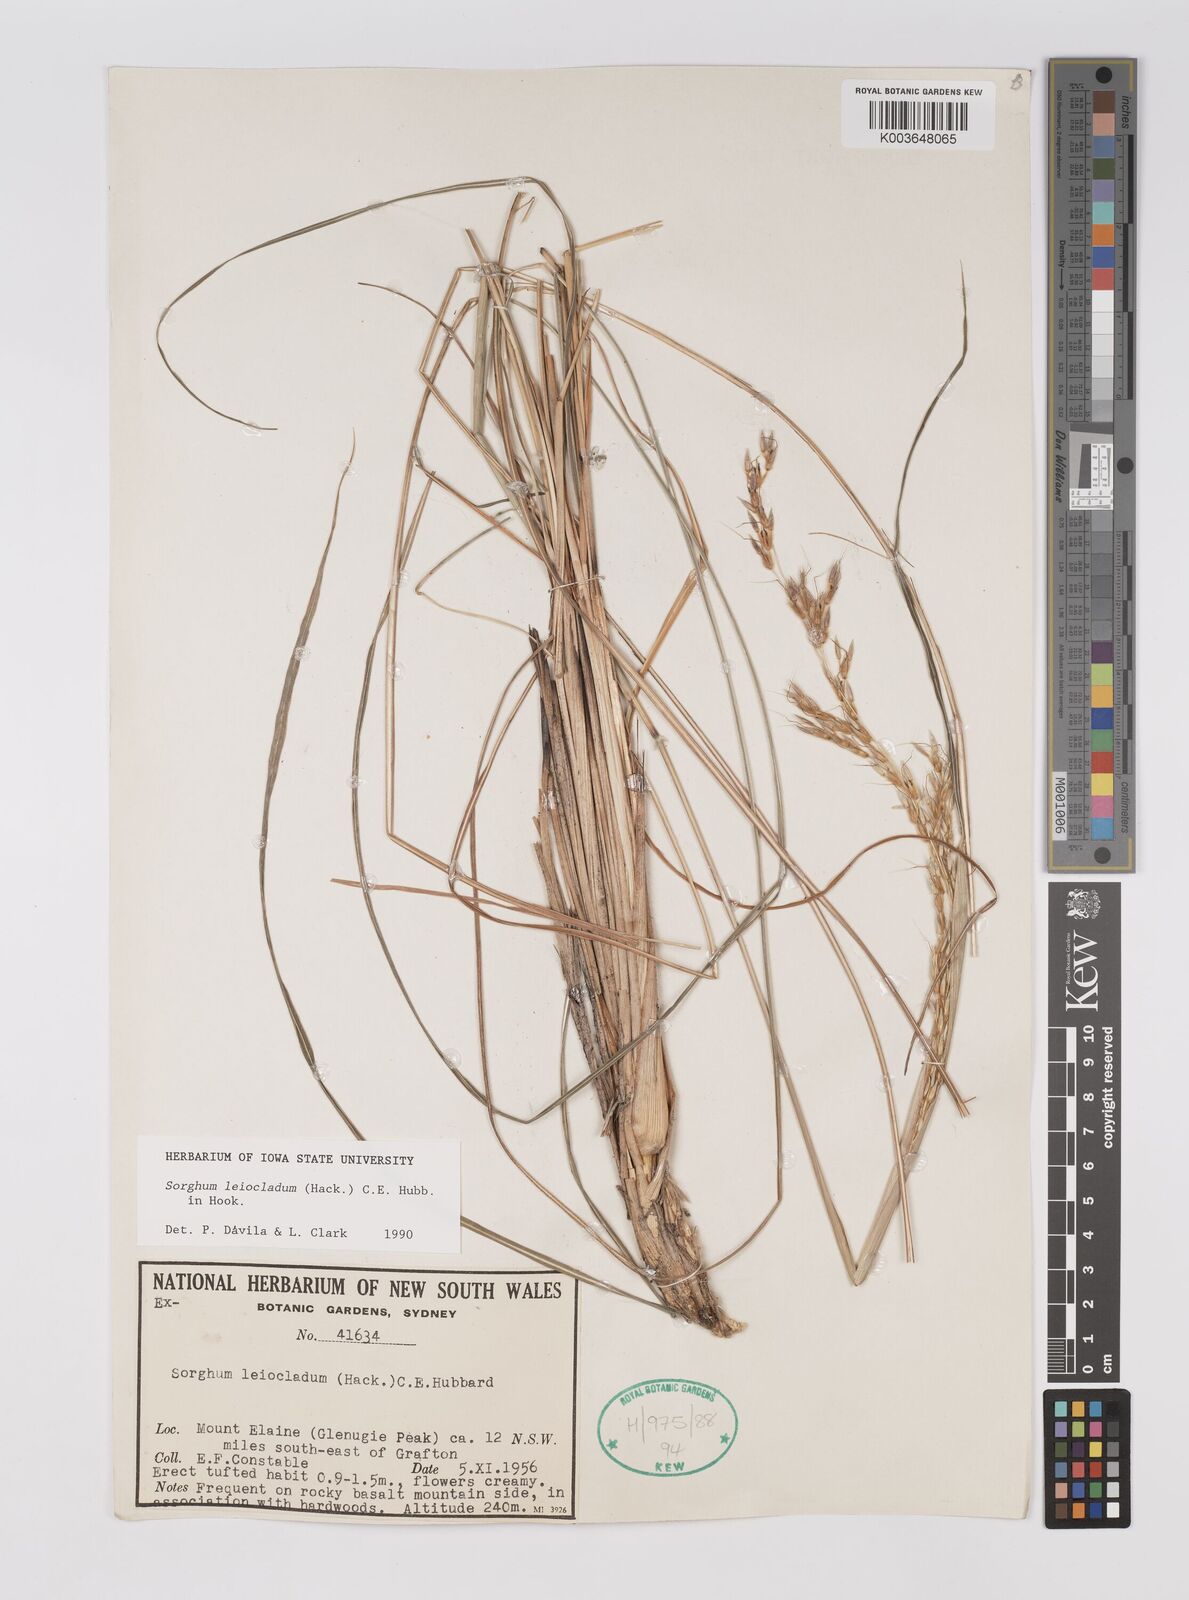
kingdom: Plantae
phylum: Tracheophyta
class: Liliopsida
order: Poales
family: Poaceae
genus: Sarga
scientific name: Sarga leioclada
